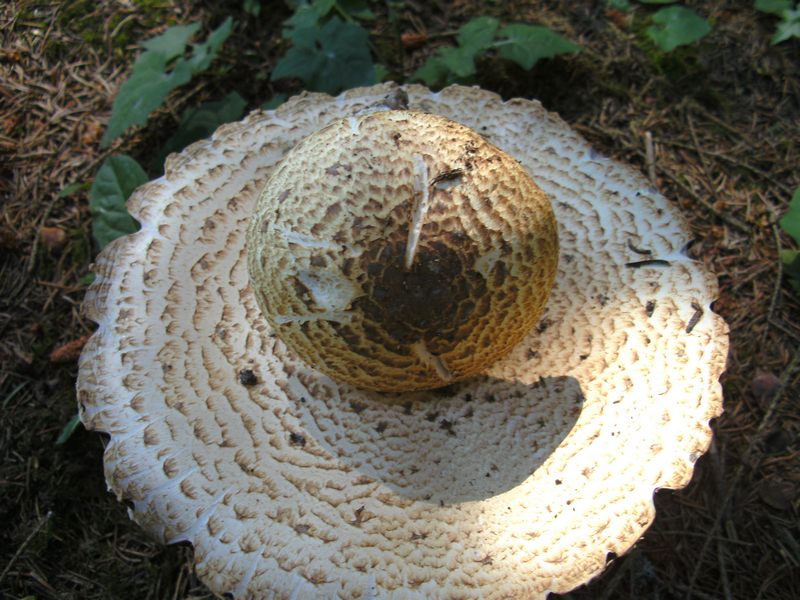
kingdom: Fungi
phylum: Basidiomycota
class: Agaricomycetes
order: Agaricales
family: Agaricaceae
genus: Agaricus
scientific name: Agaricus augustus
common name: prægtig champignon
